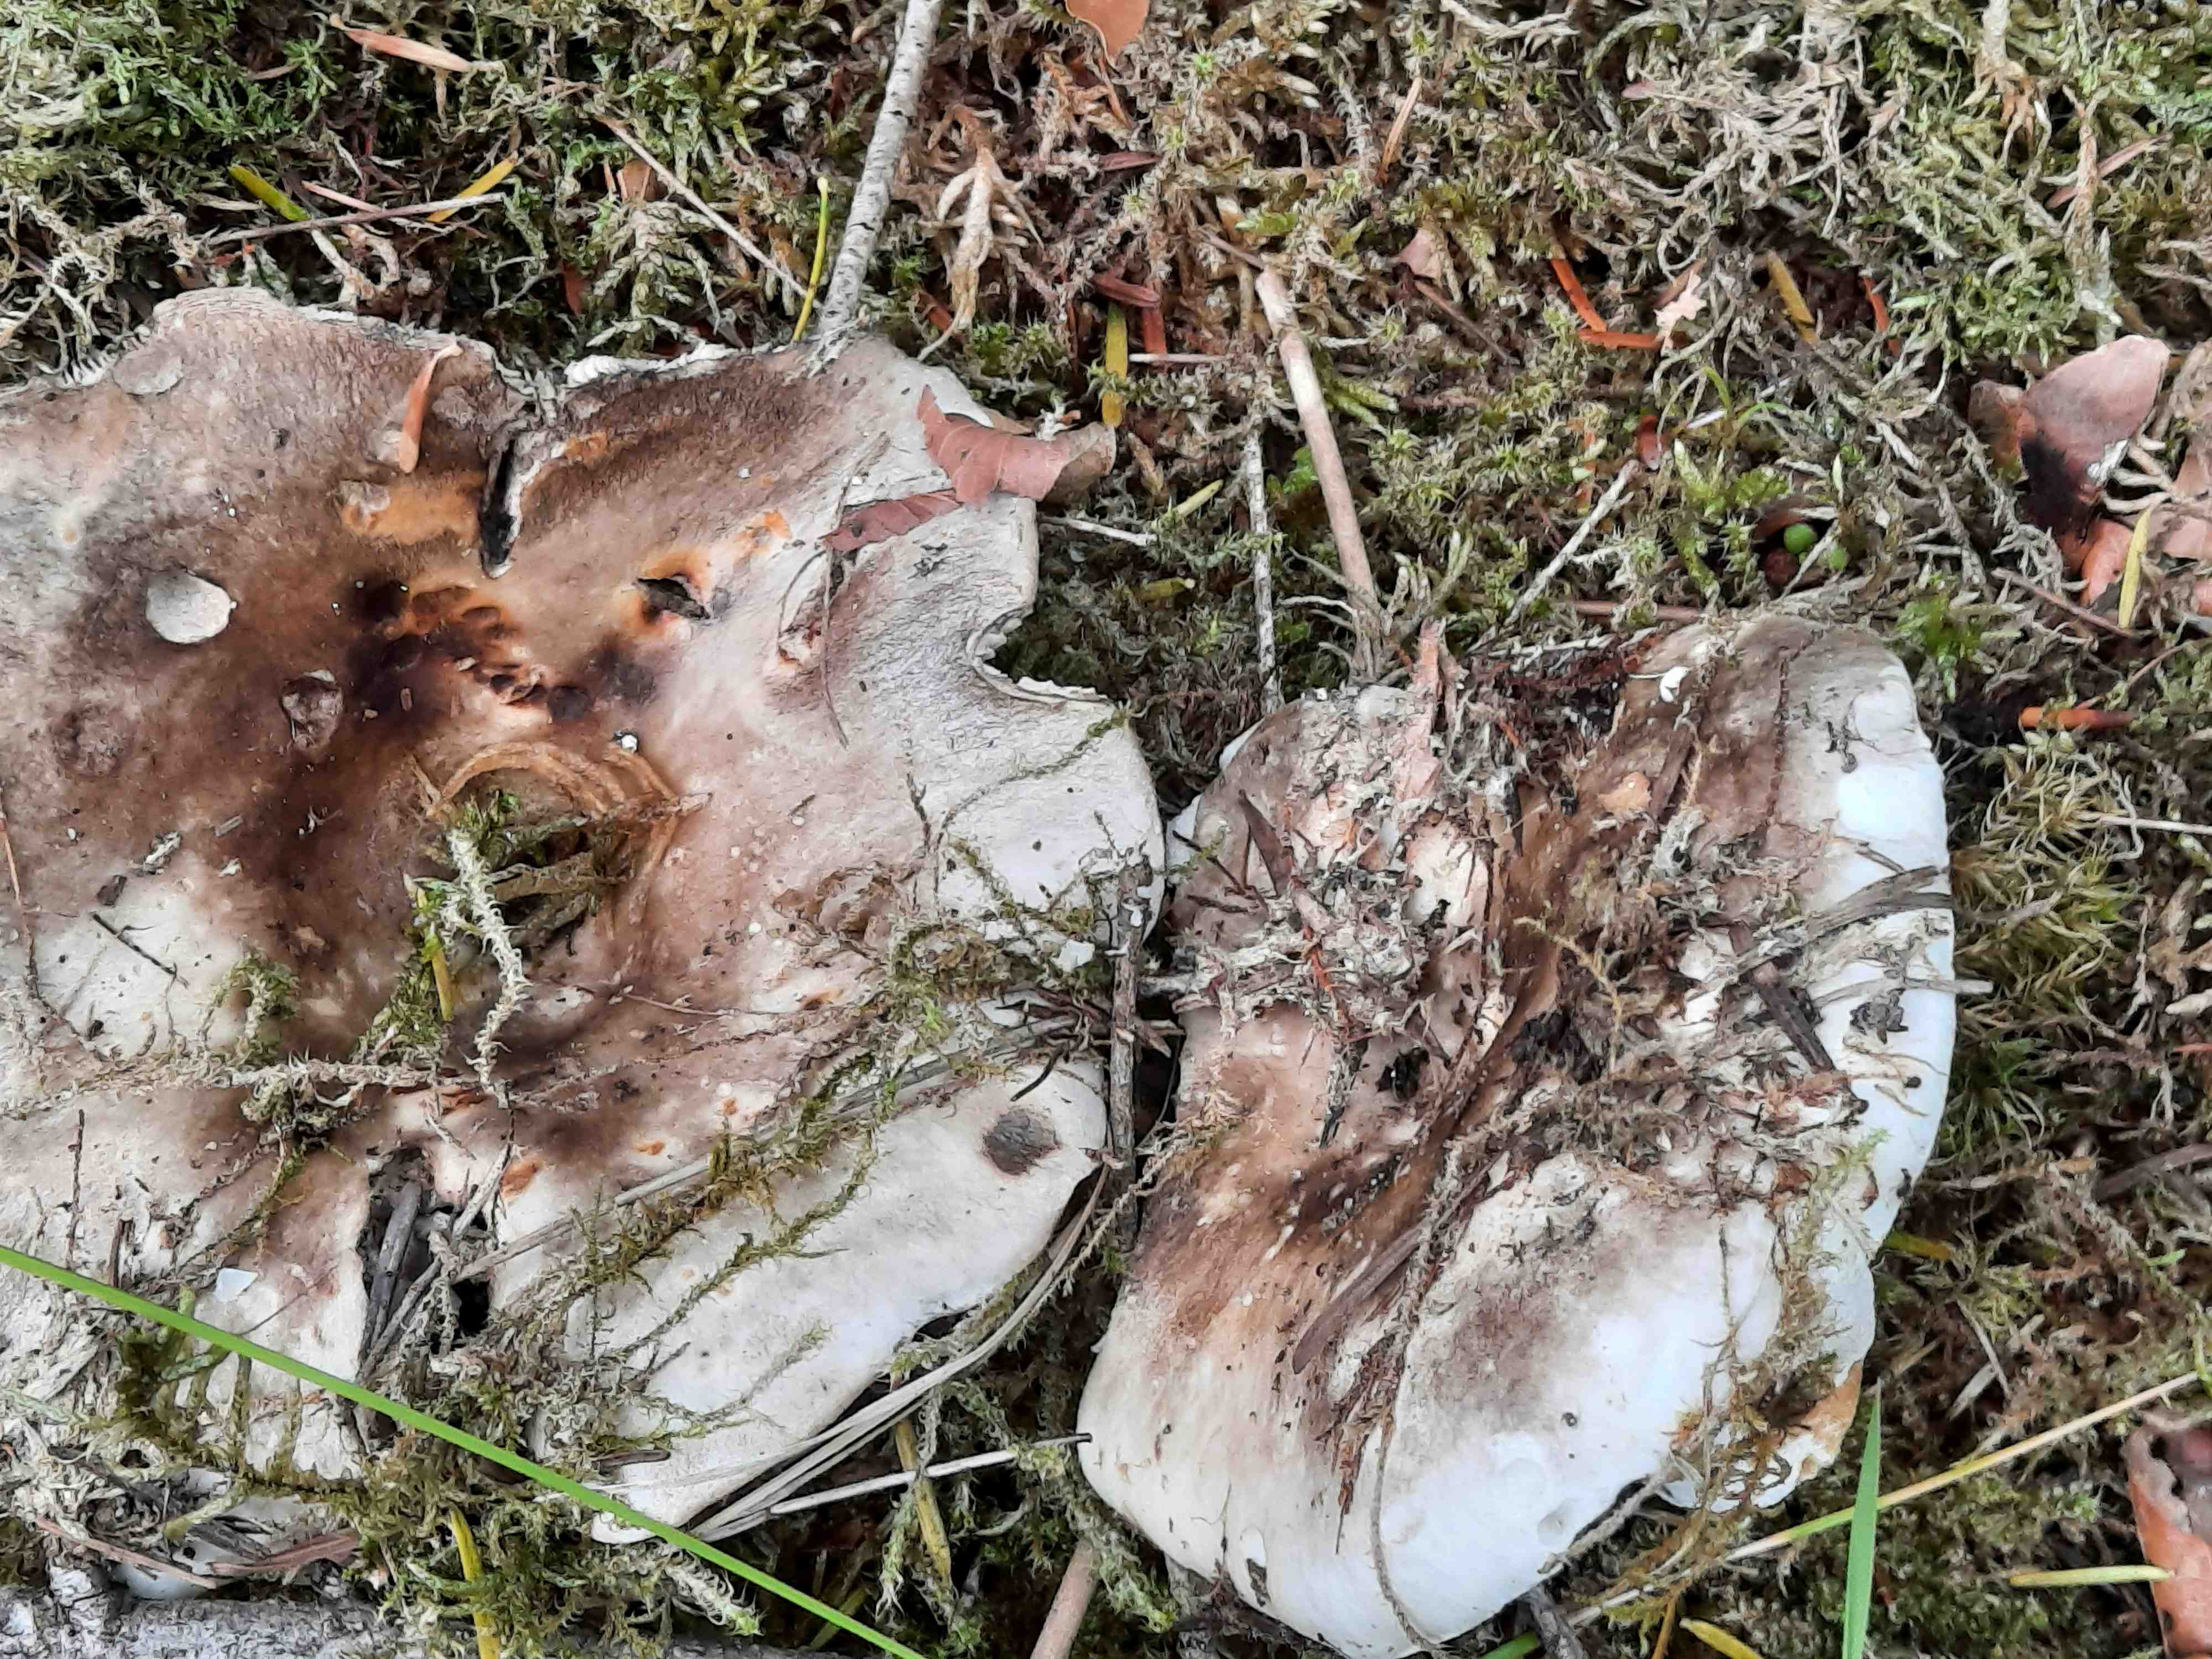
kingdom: Fungi
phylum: Basidiomycota
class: Agaricomycetes
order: Russulales
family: Russulaceae
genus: Russula
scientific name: Russula acrifolia
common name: skarpbladet skørhat
